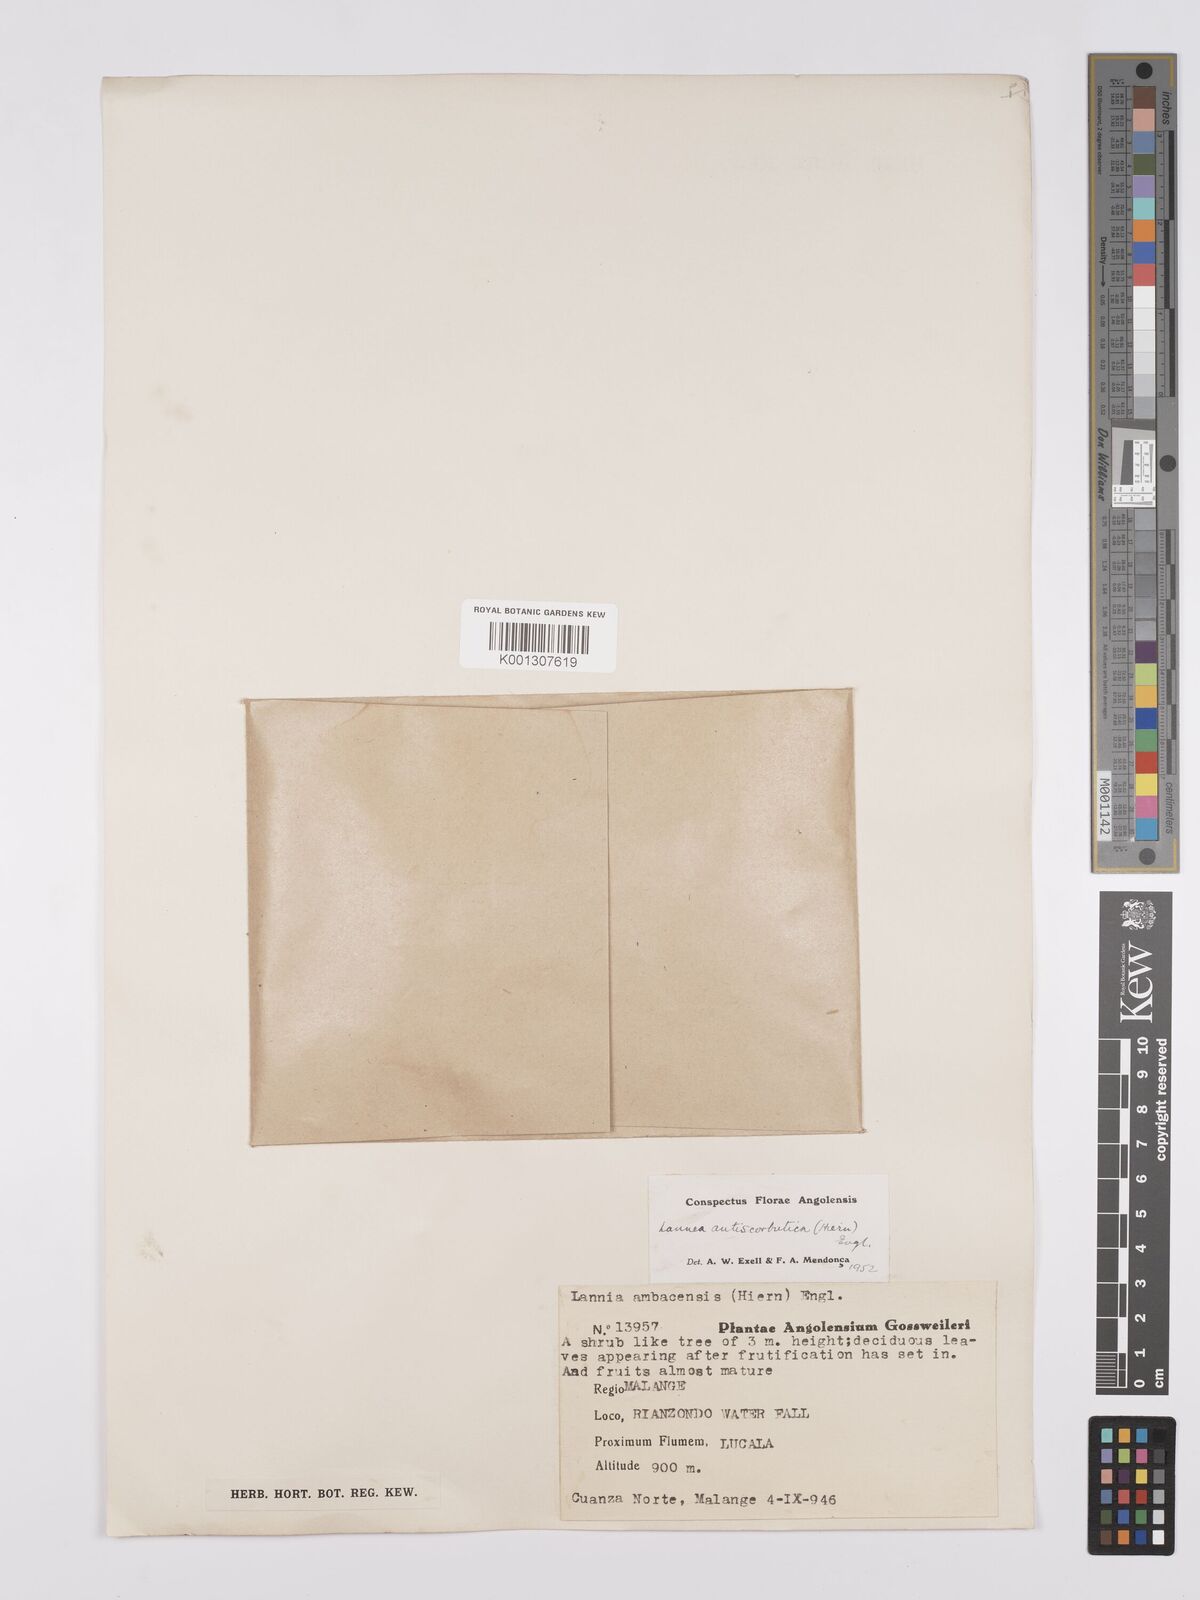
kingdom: Plantae
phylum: Tracheophyta
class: Magnoliopsida
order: Sapindales
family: Anacardiaceae
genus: Lannea
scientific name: Lannea antiscorbutica
